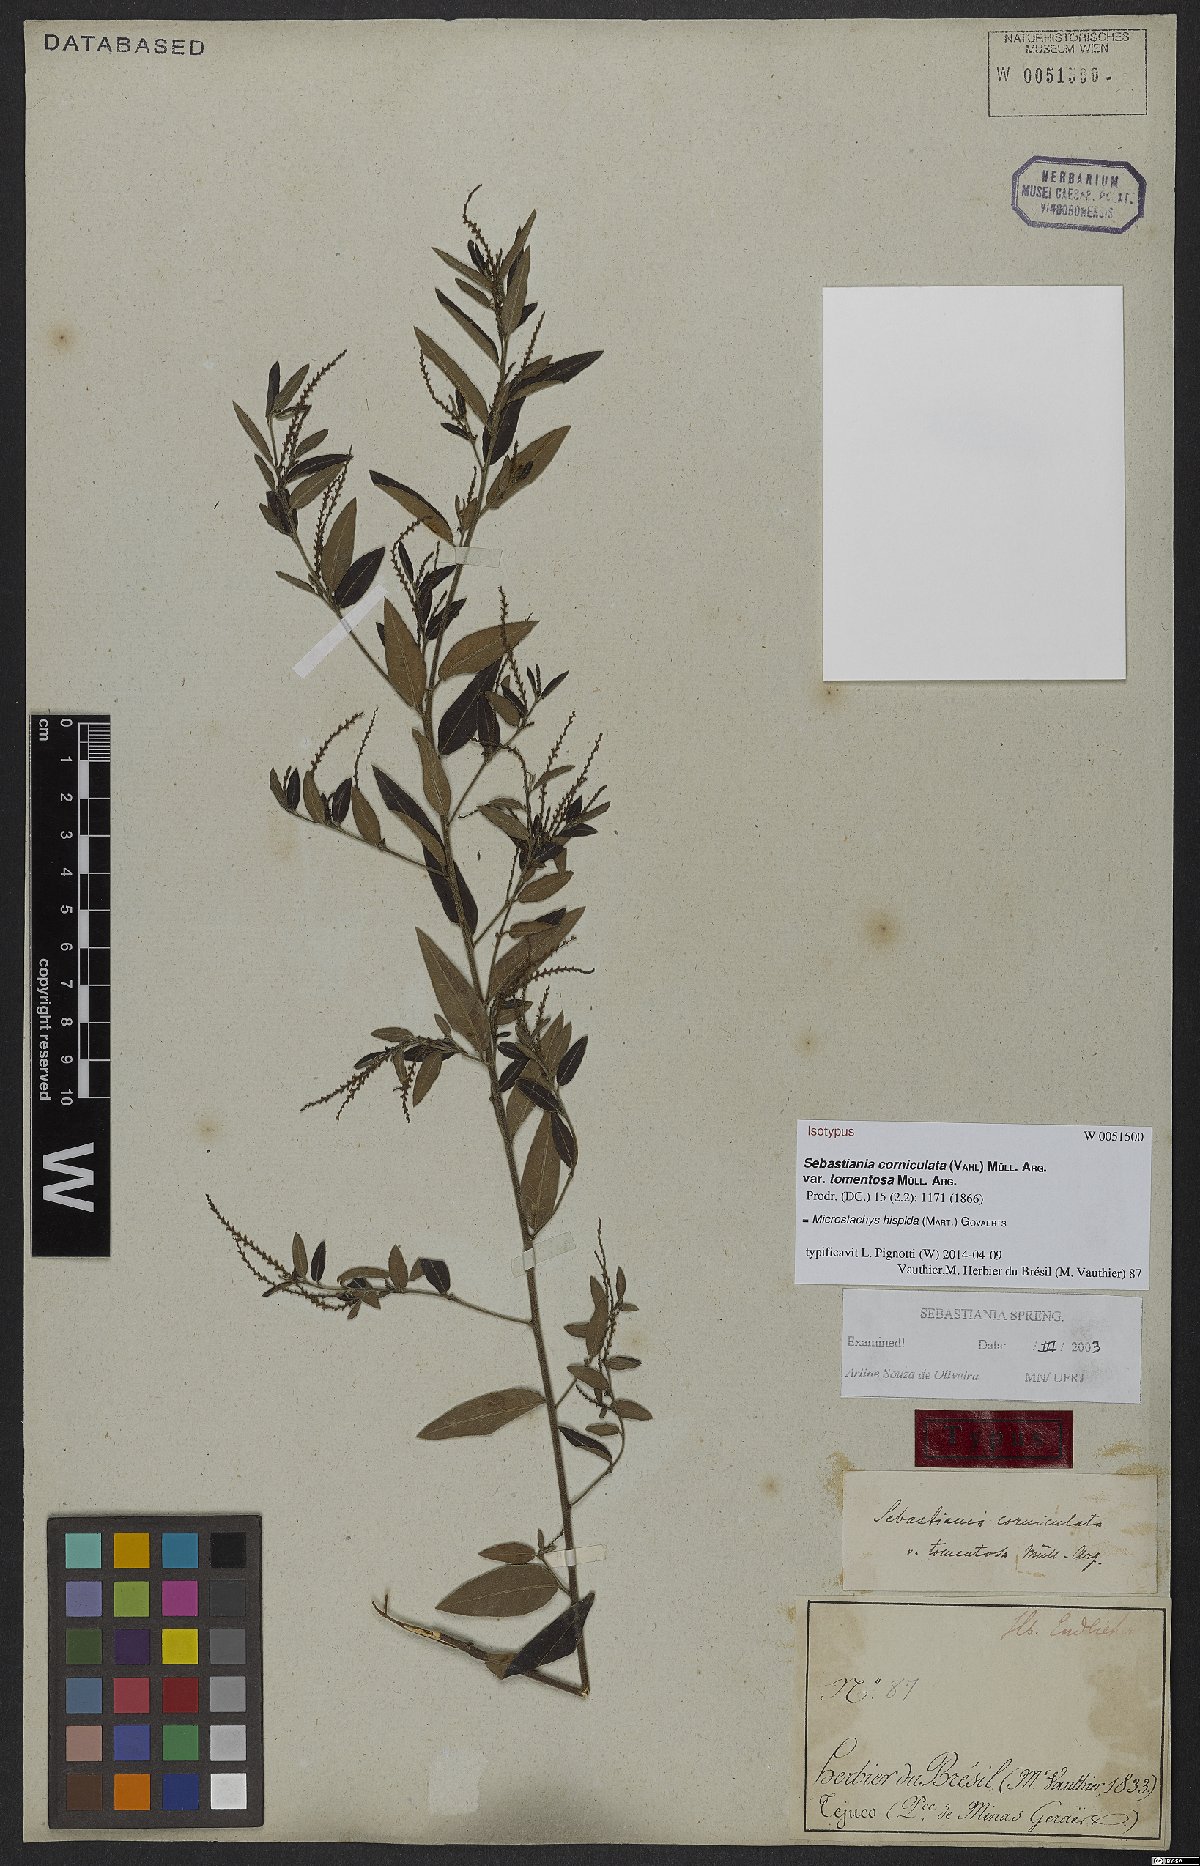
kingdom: Plantae
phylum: Tracheophyta
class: Magnoliopsida
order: Malpighiales
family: Euphorbiaceae
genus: Microstachys
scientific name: Microstachys hispida
